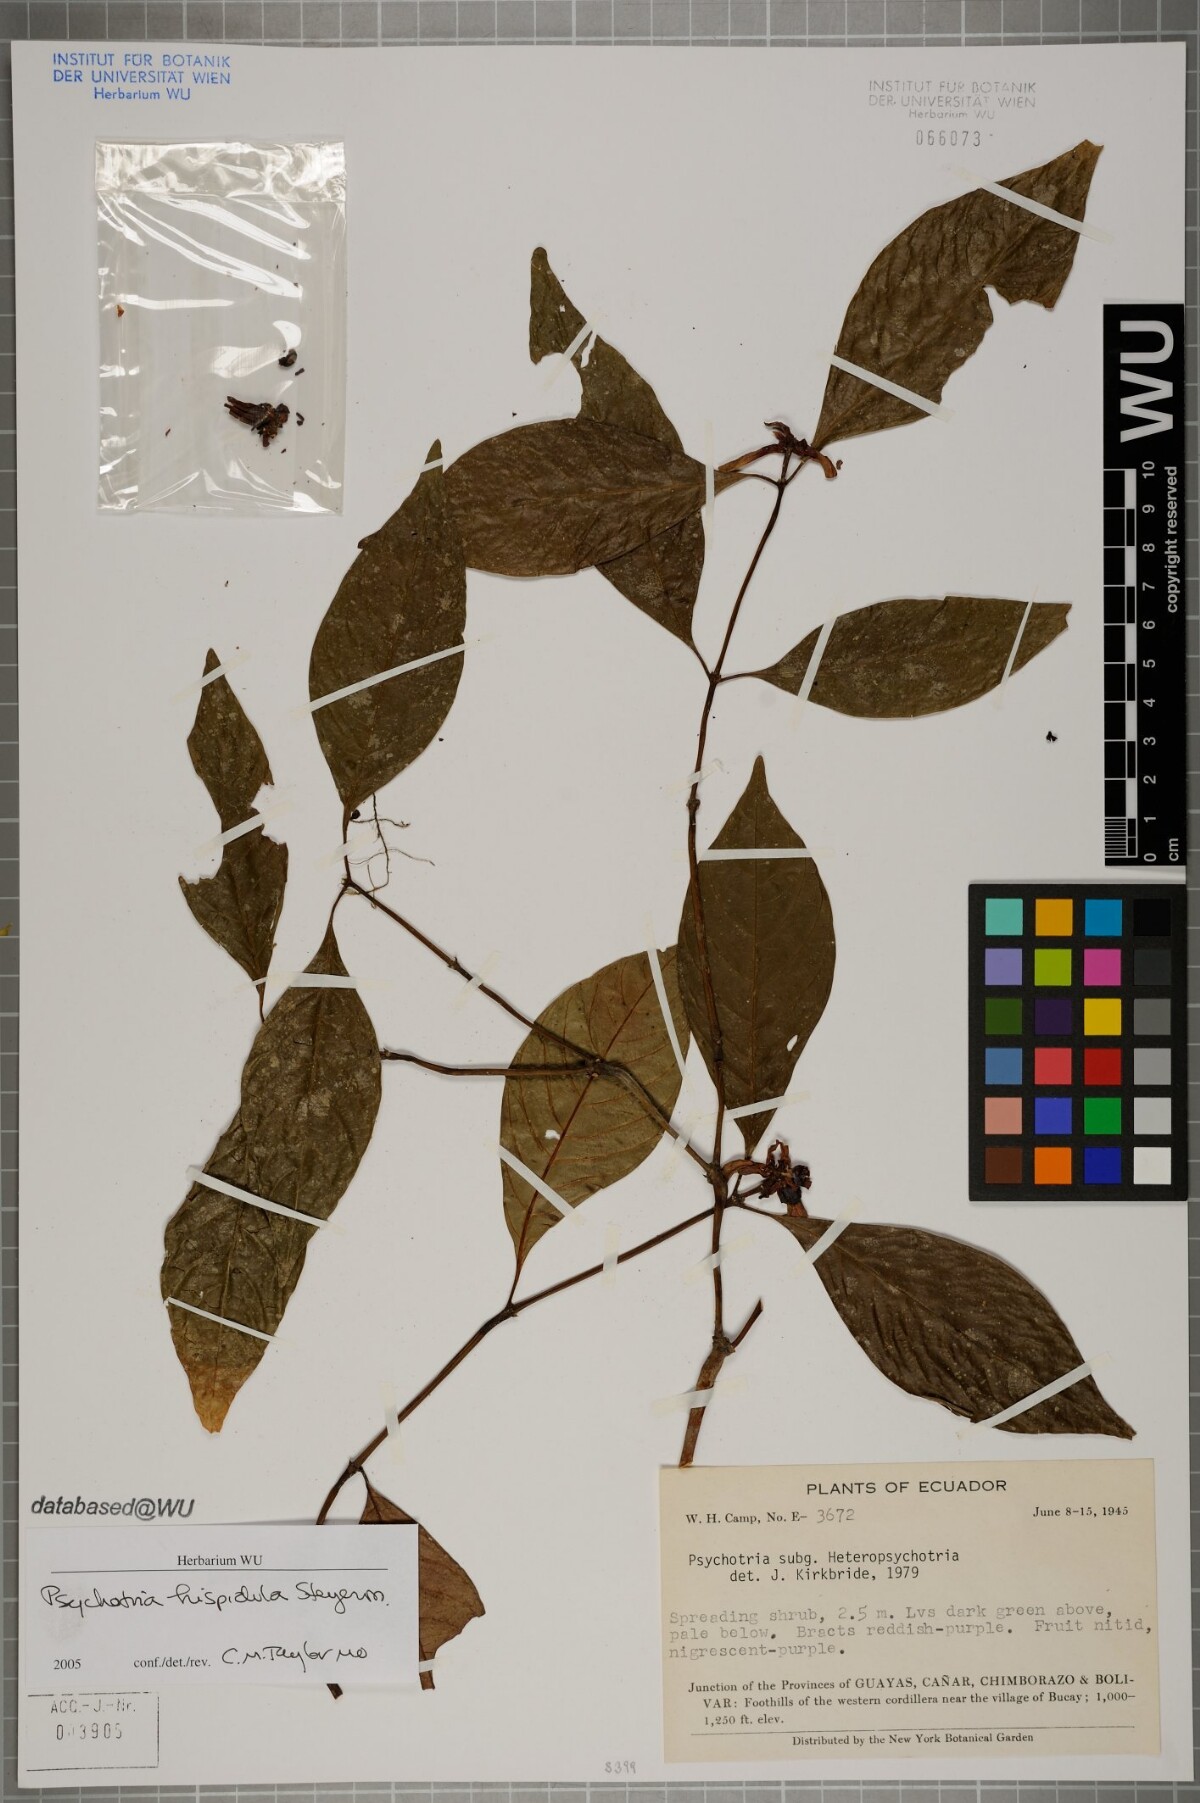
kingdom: Plantae
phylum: Tracheophyta
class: Magnoliopsida
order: Gentianales
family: Rubiaceae
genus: Palicourea
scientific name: Palicourea longiinvolucrata
